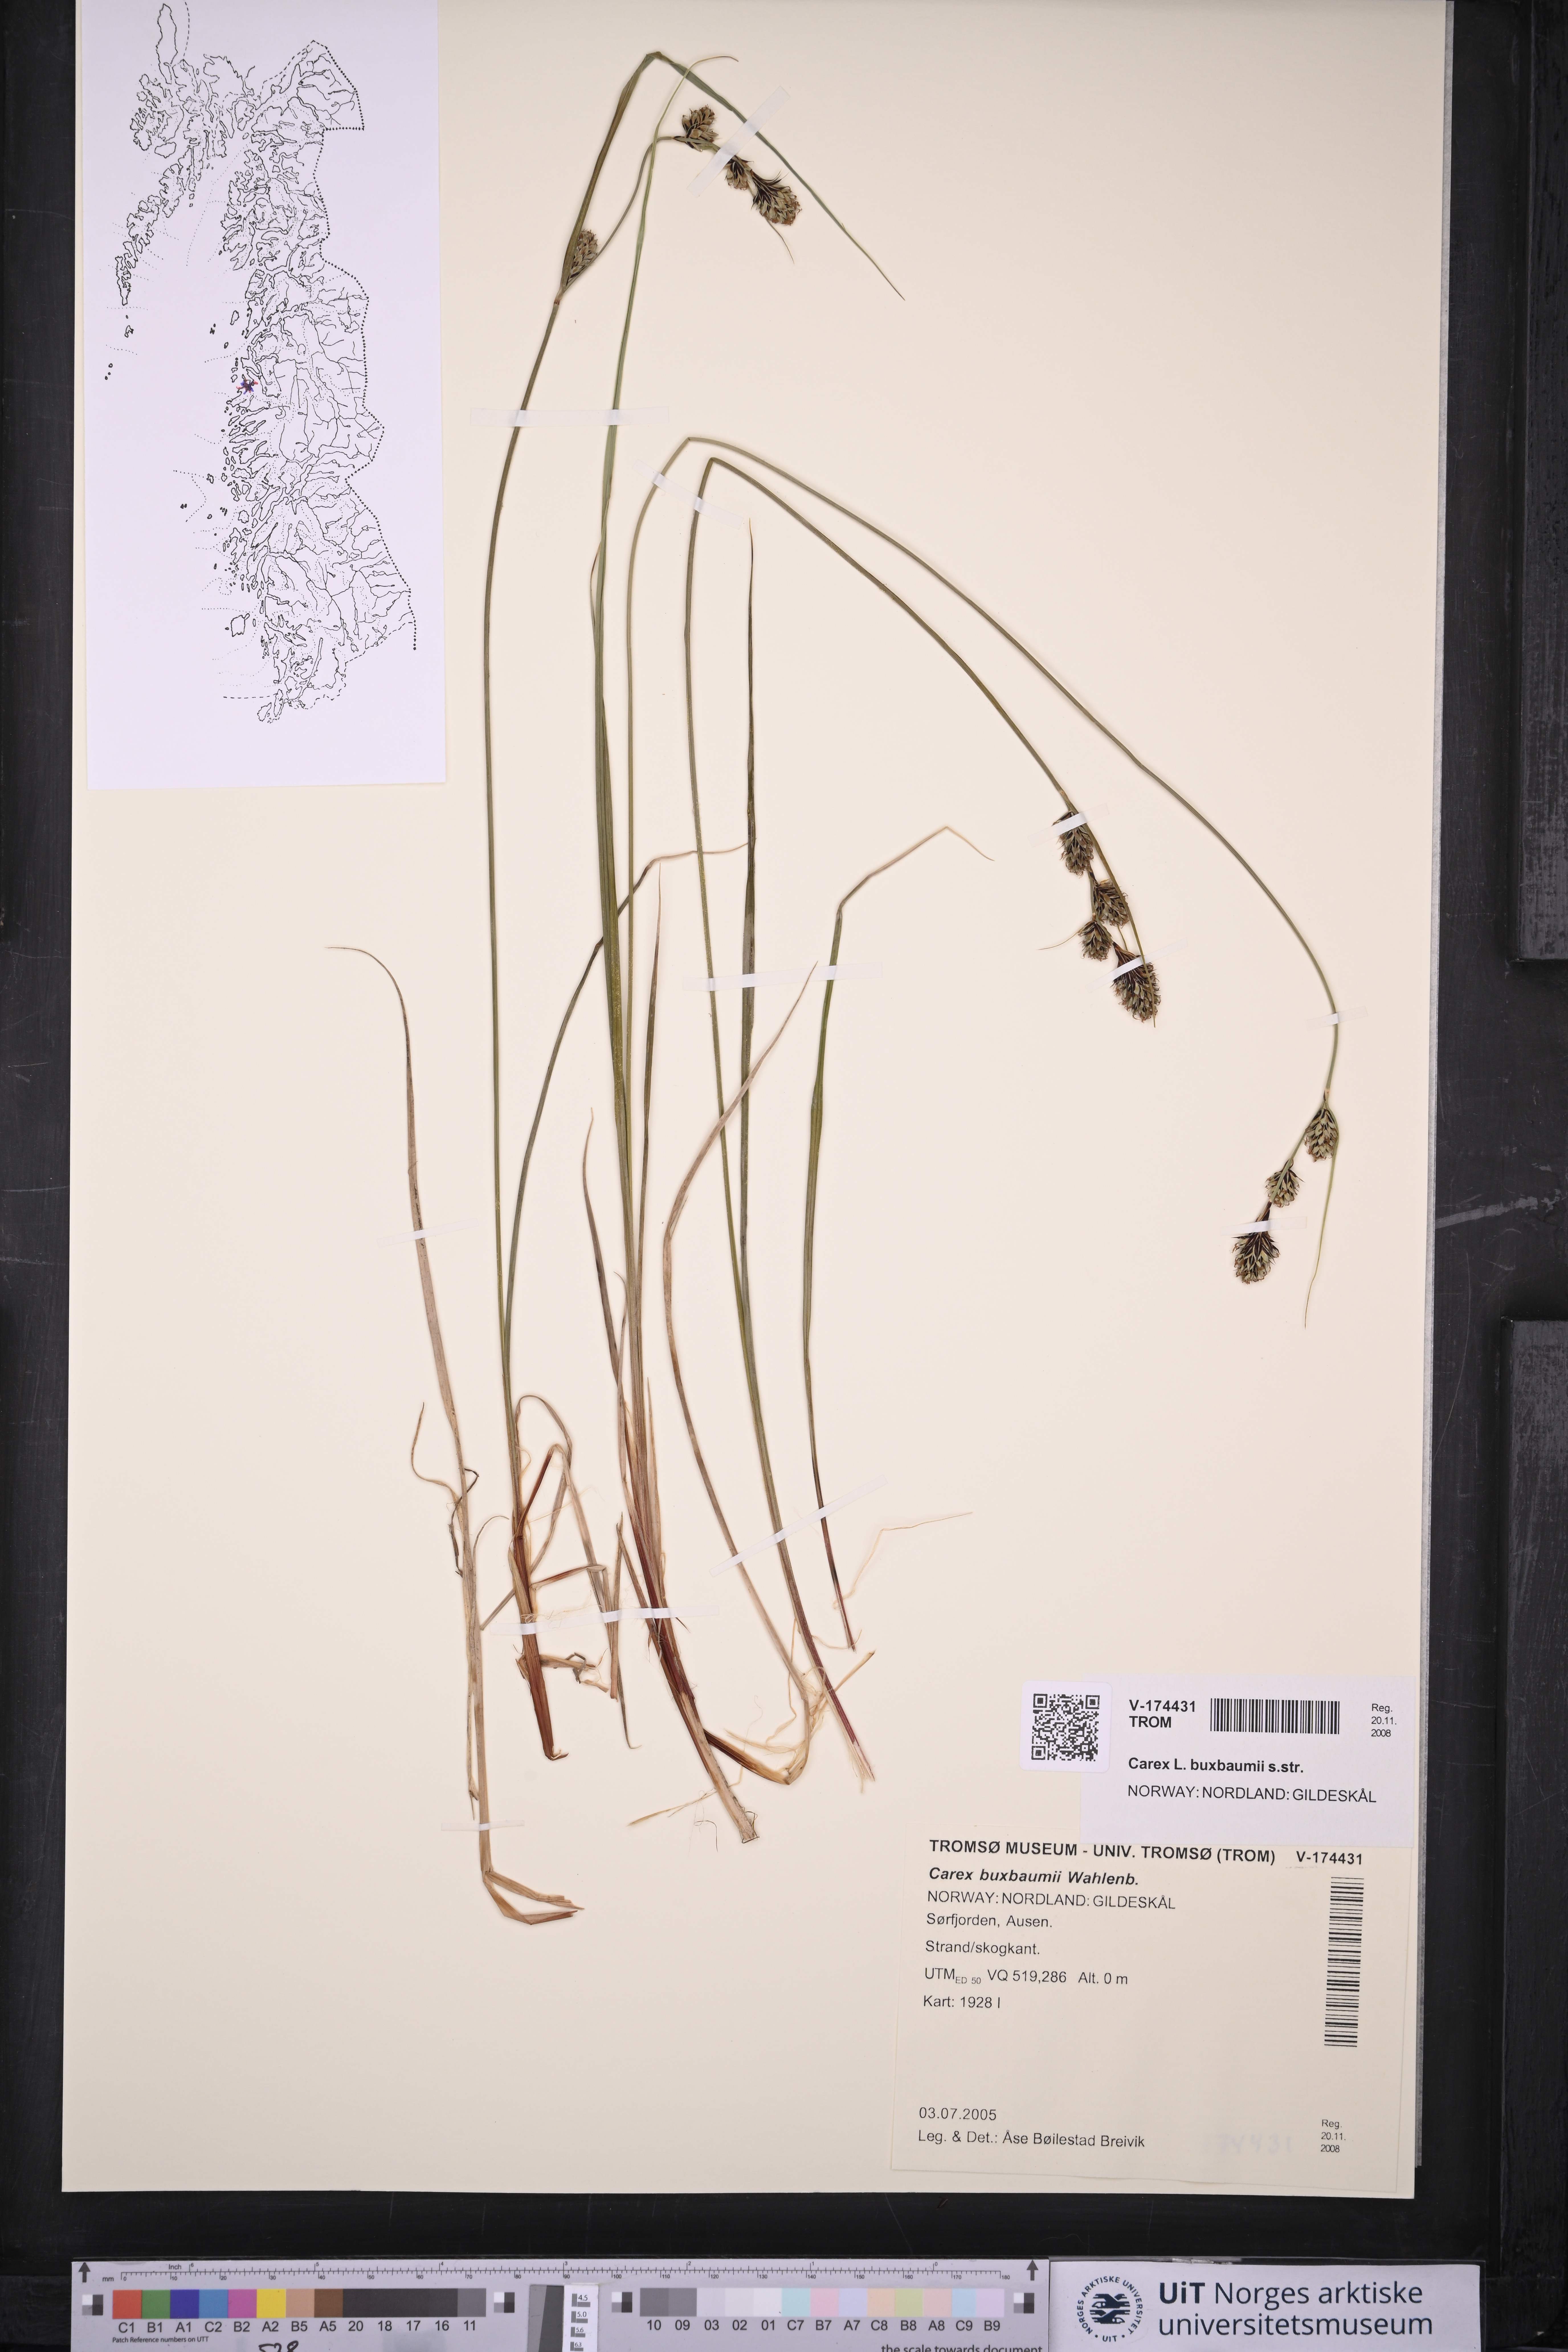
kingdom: Plantae
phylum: Tracheophyta
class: Liliopsida
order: Poales
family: Cyperaceae
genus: Carex
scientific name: Carex buxbaumii
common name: Club sedge
